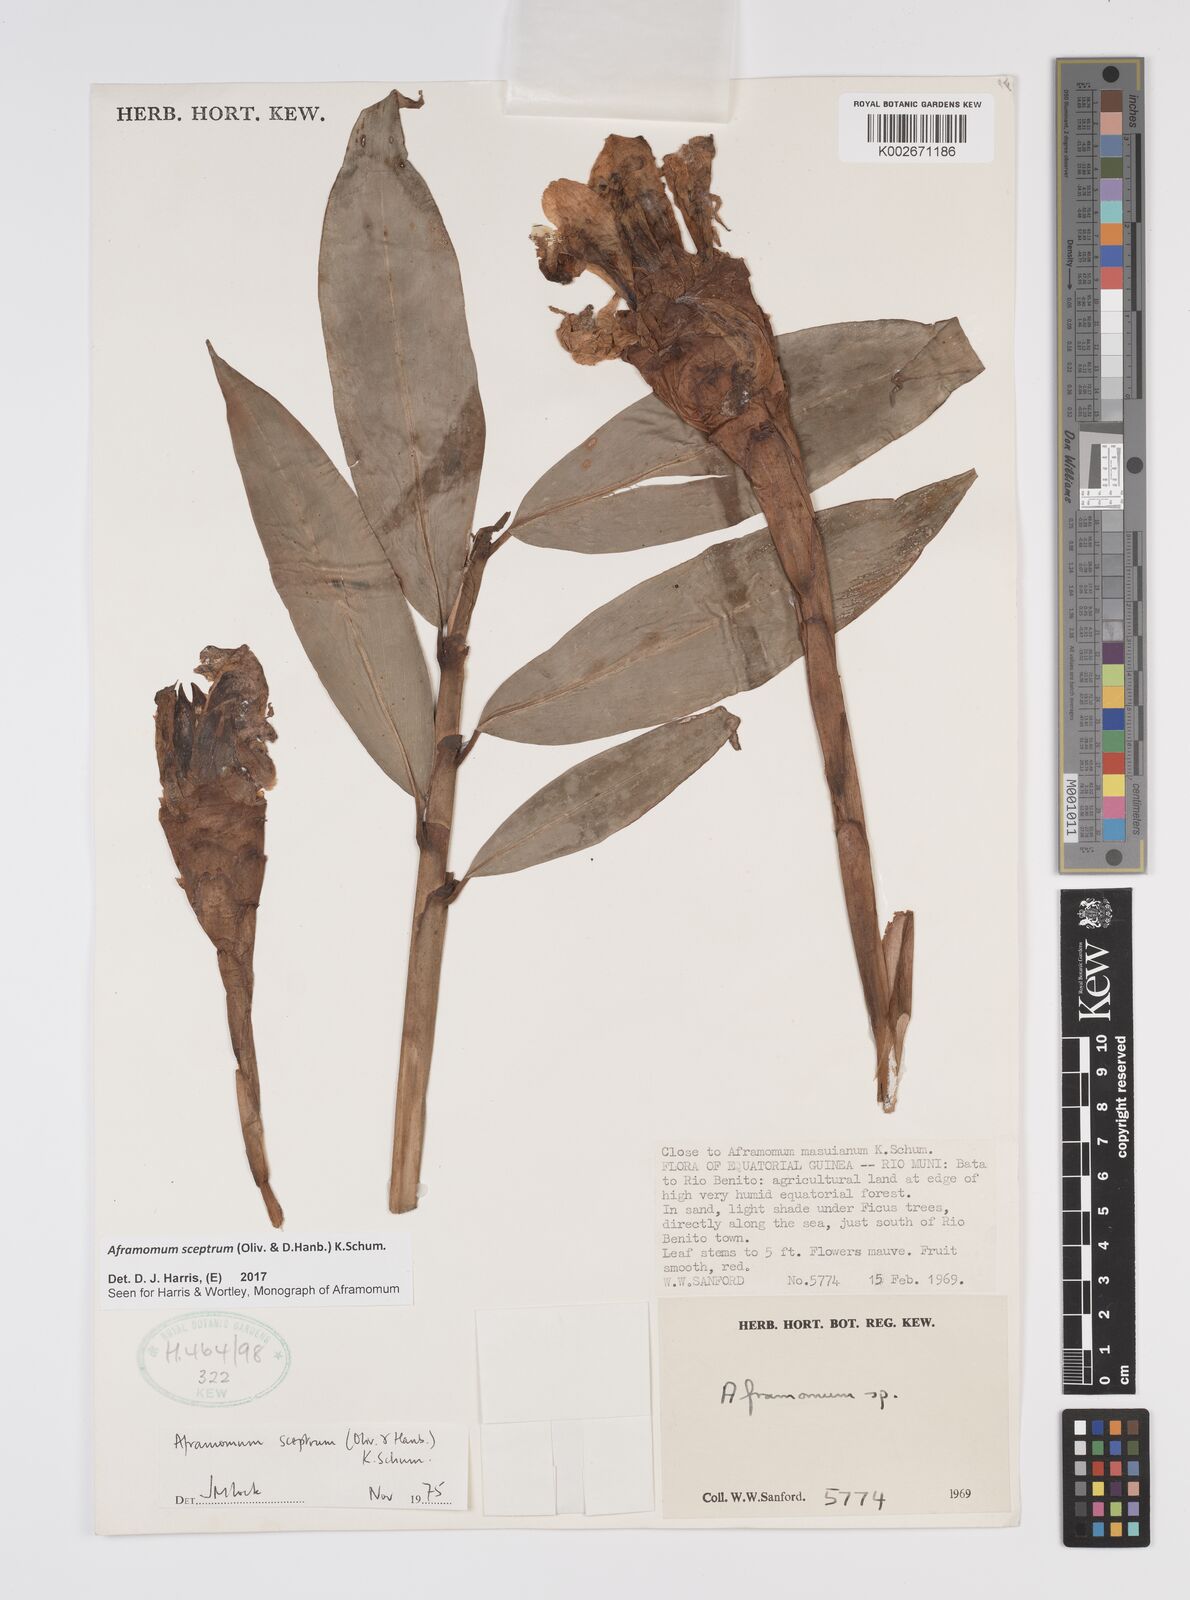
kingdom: Plantae
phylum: Tracheophyta
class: Liliopsida
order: Zingiberales
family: Zingiberaceae
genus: Aframomum
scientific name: Aframomum cereum
